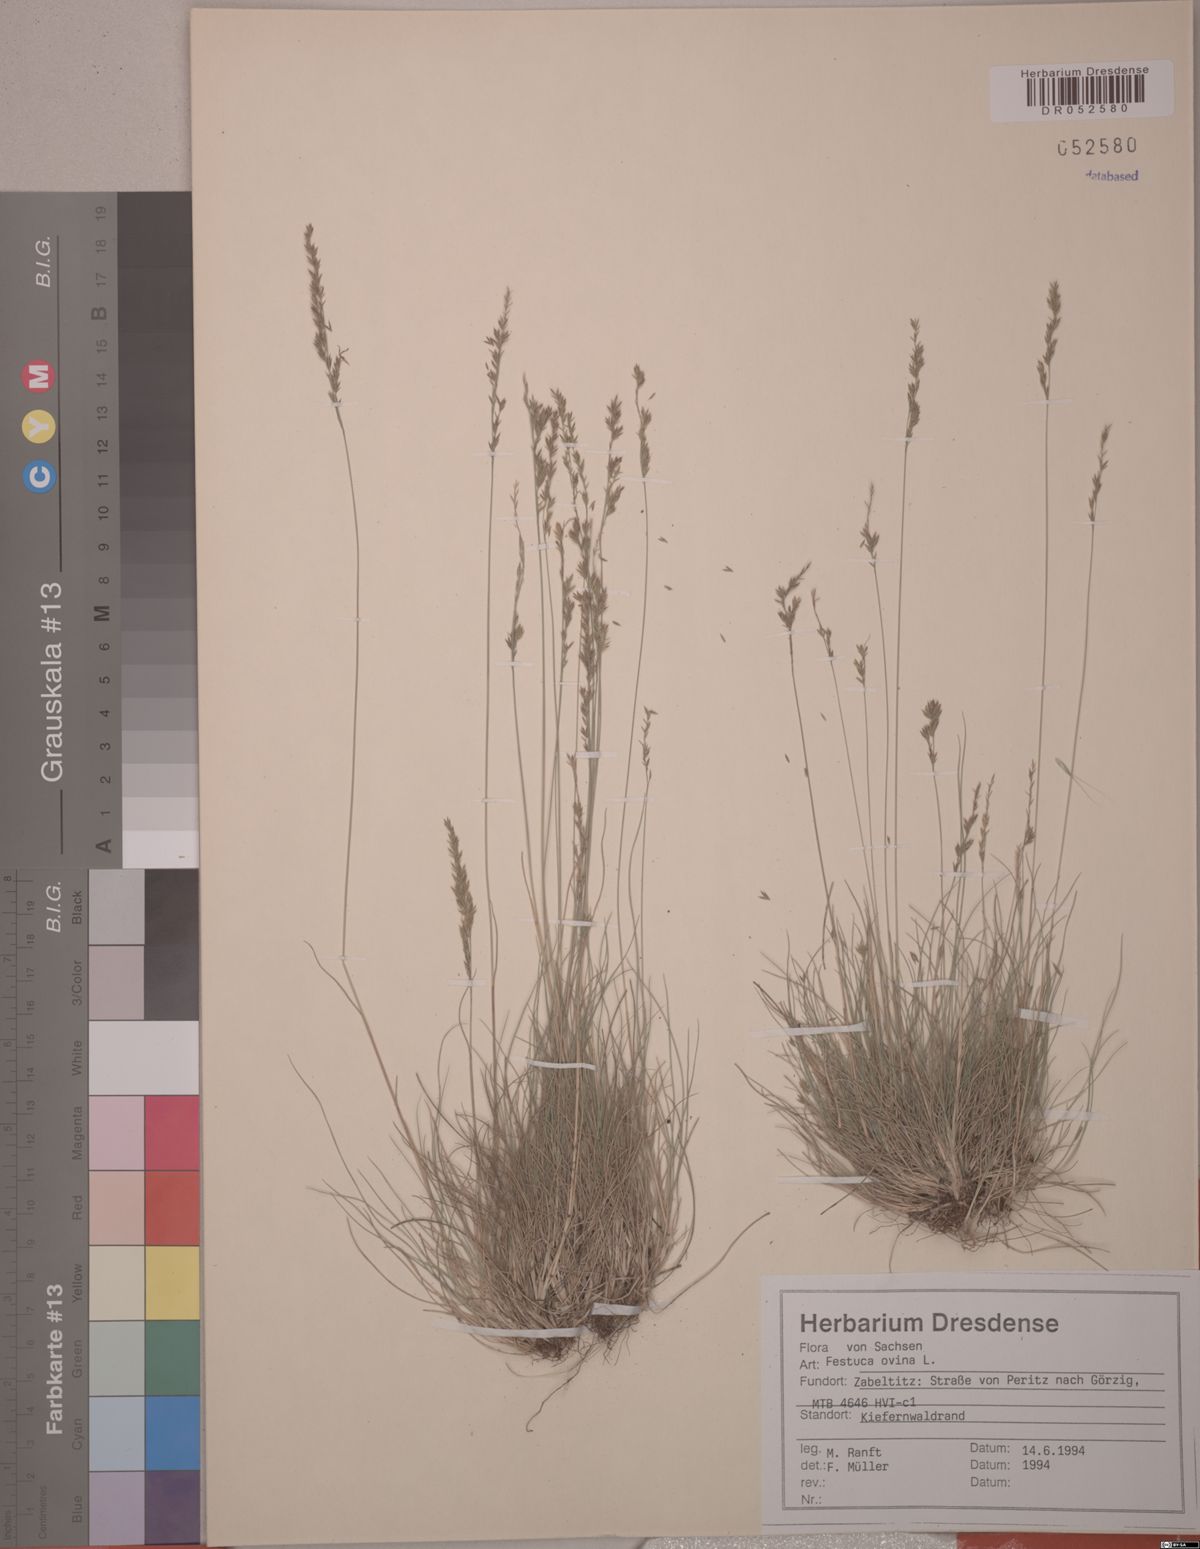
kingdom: Plantae
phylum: Tracheophyta
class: Liliopsida
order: Poales
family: Poaceae
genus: Festuca
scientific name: Festuca ovina
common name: Sheep fescue
